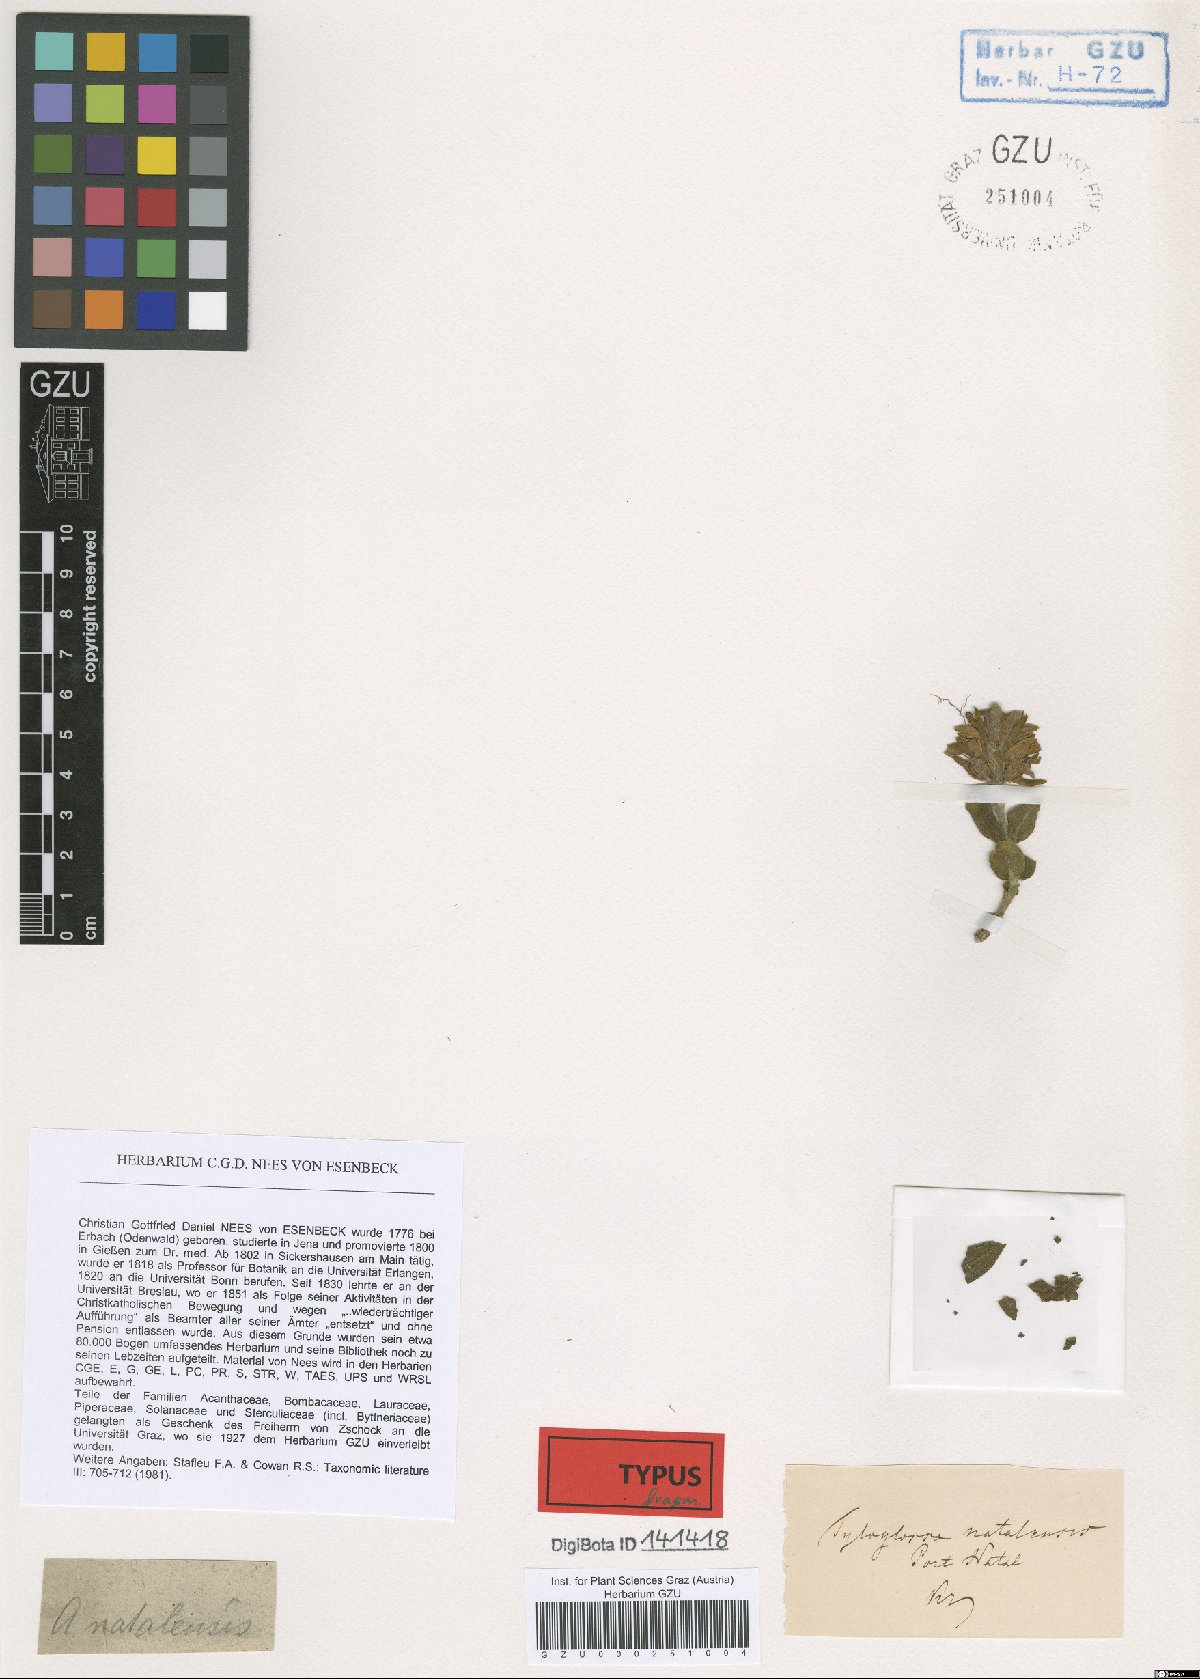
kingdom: Plantae
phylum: Tracheophyta
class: Magnoliopsida
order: Lamiales
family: Acanthaceae
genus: Monechma
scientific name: Monechma salsola
